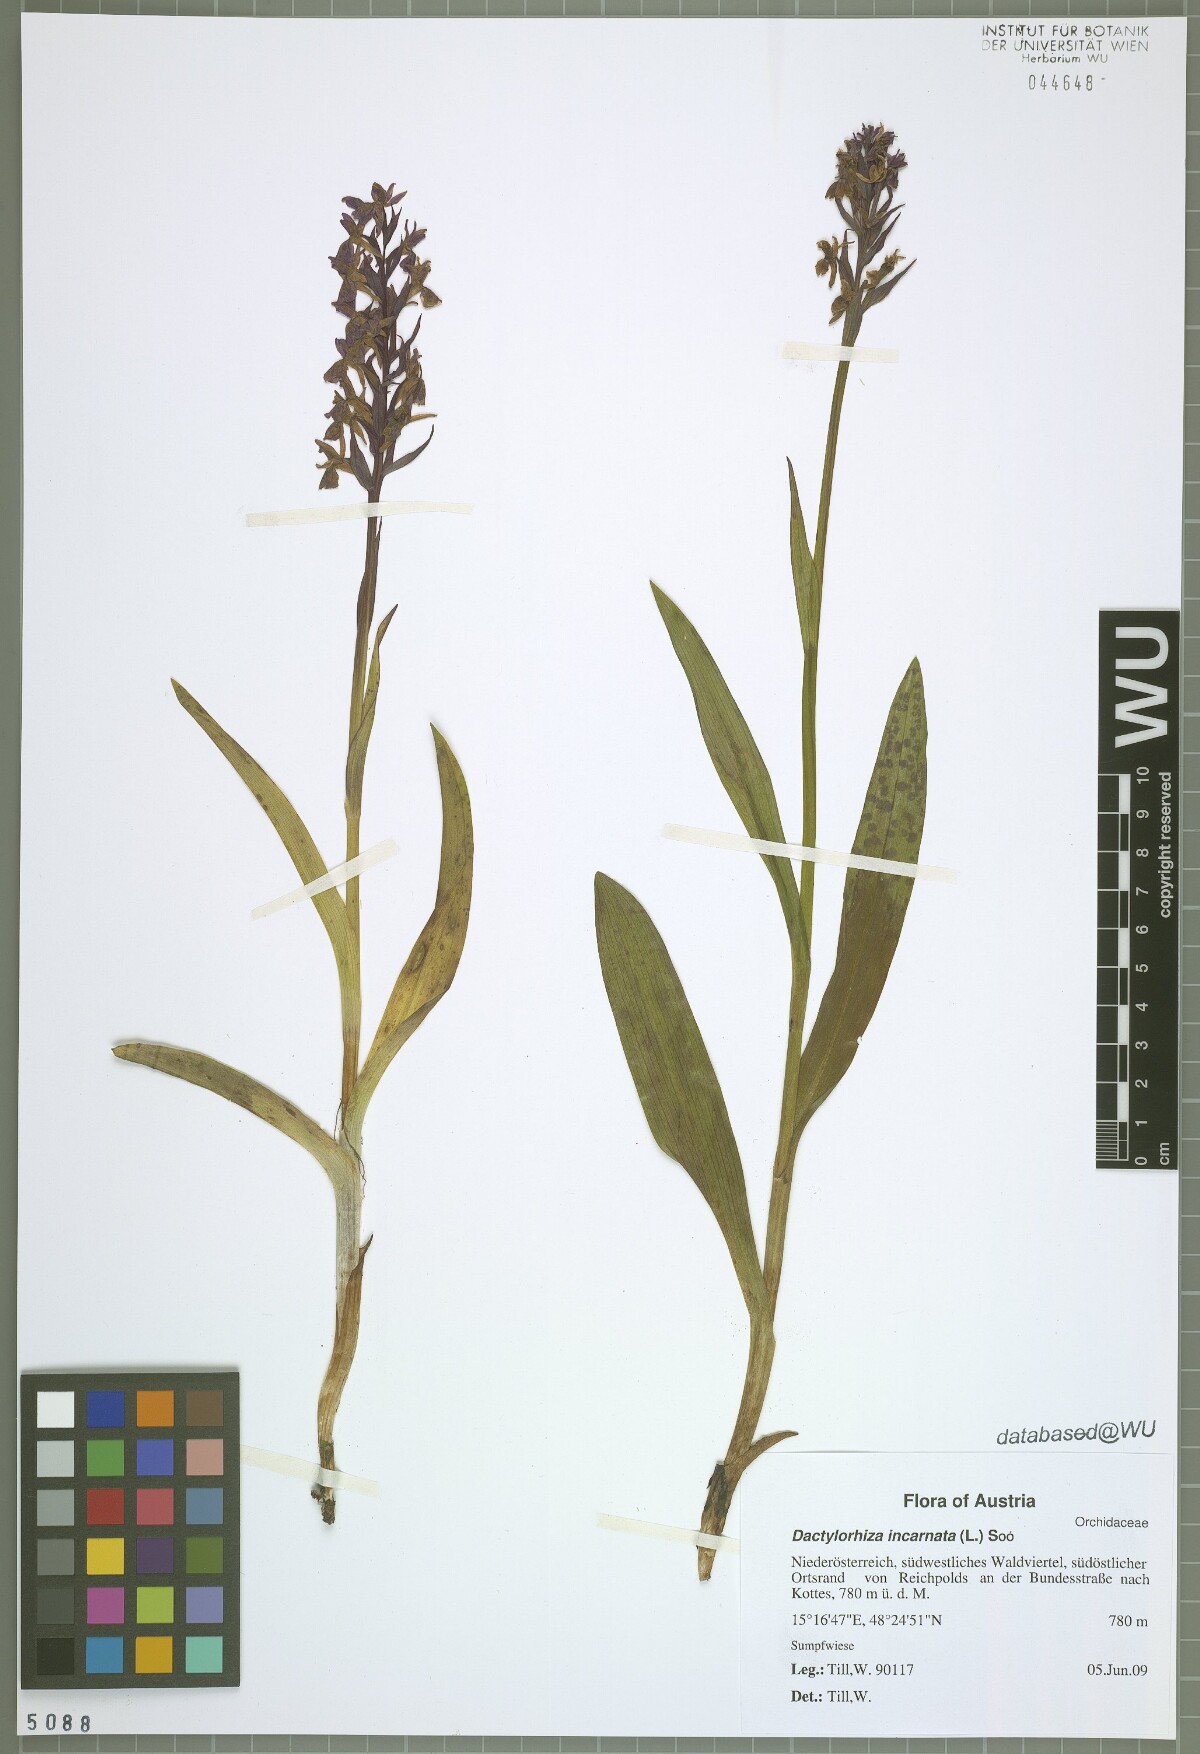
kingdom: Plantae
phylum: Tracheophyta
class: Liliopsida
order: Asparagales
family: Orchidaceae
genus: Dactylorhiza
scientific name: Dactylorhiza incarnata
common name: Early marsh-orchid
